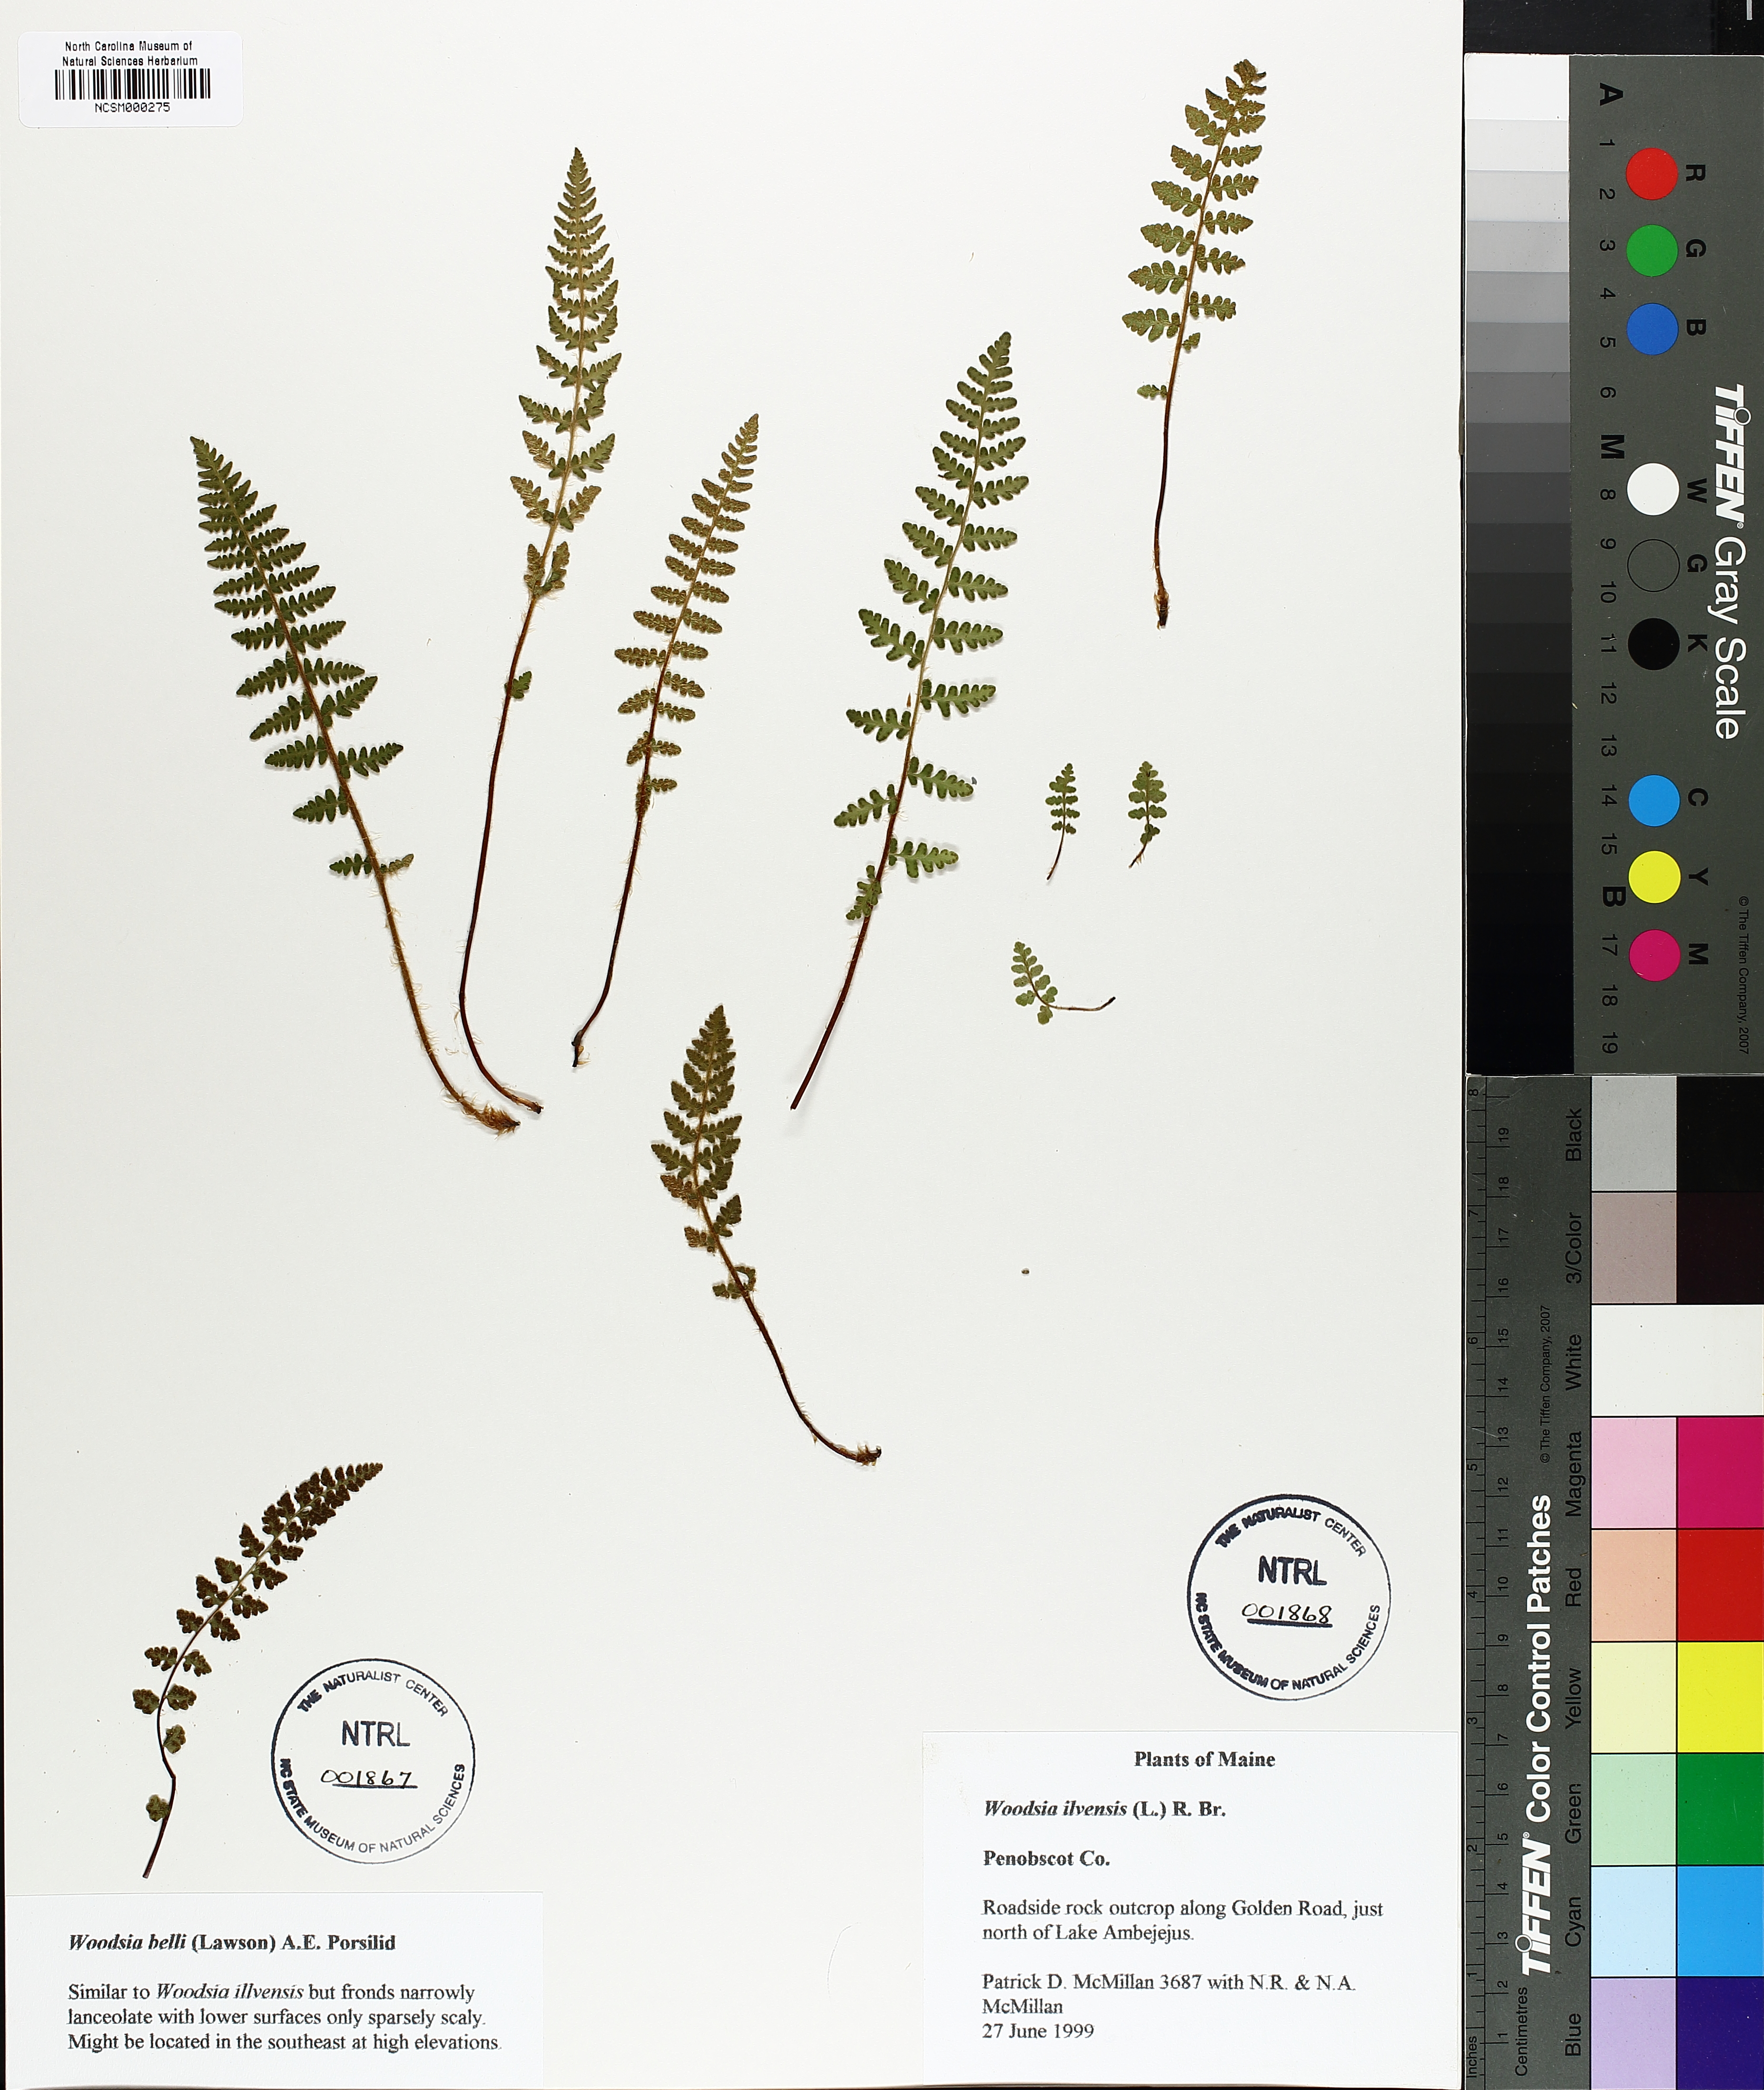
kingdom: Plantae
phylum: Tracheophyta
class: Polypodiopsida
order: Polypodiales
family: Woodsiaceae
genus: Woodsia
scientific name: Woodsia ilvensis
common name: Fragrant woodsia
